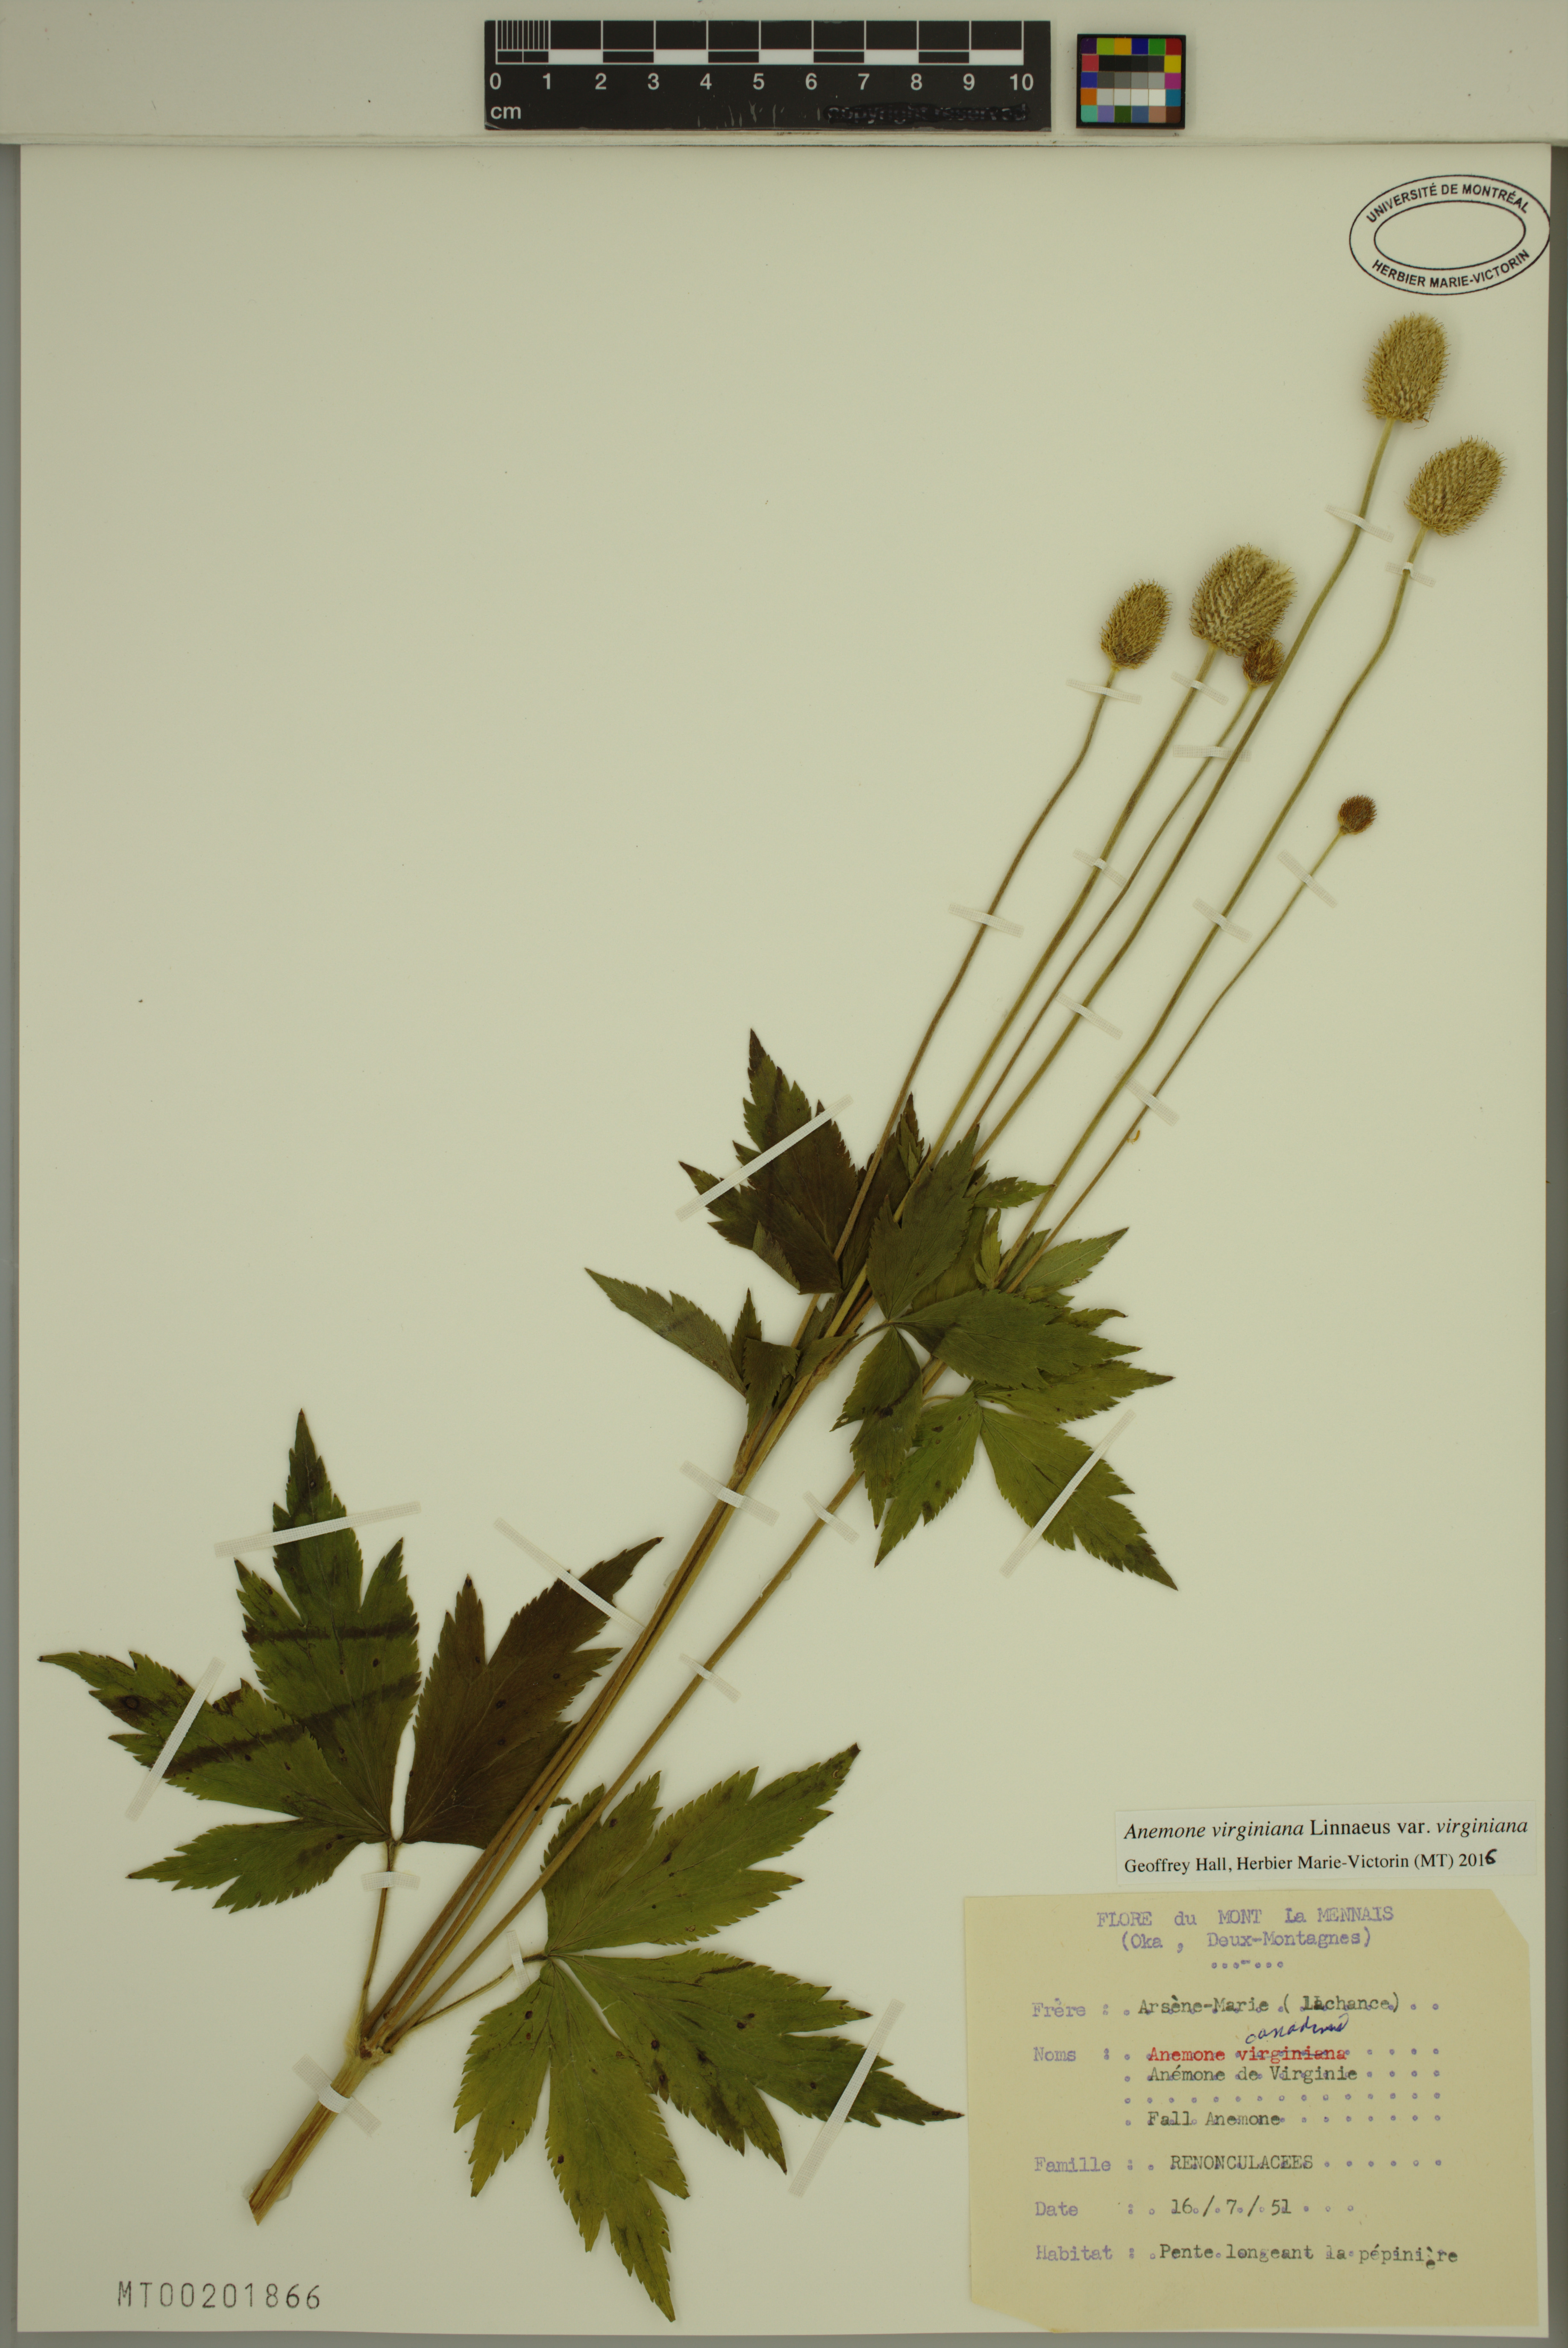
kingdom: Plantae
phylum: Tracheophyta
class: Magnoliopsida
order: Ranunculales
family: Ranunculaceae
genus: Anemone
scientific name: Anemone virginiana
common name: Tall anemone
